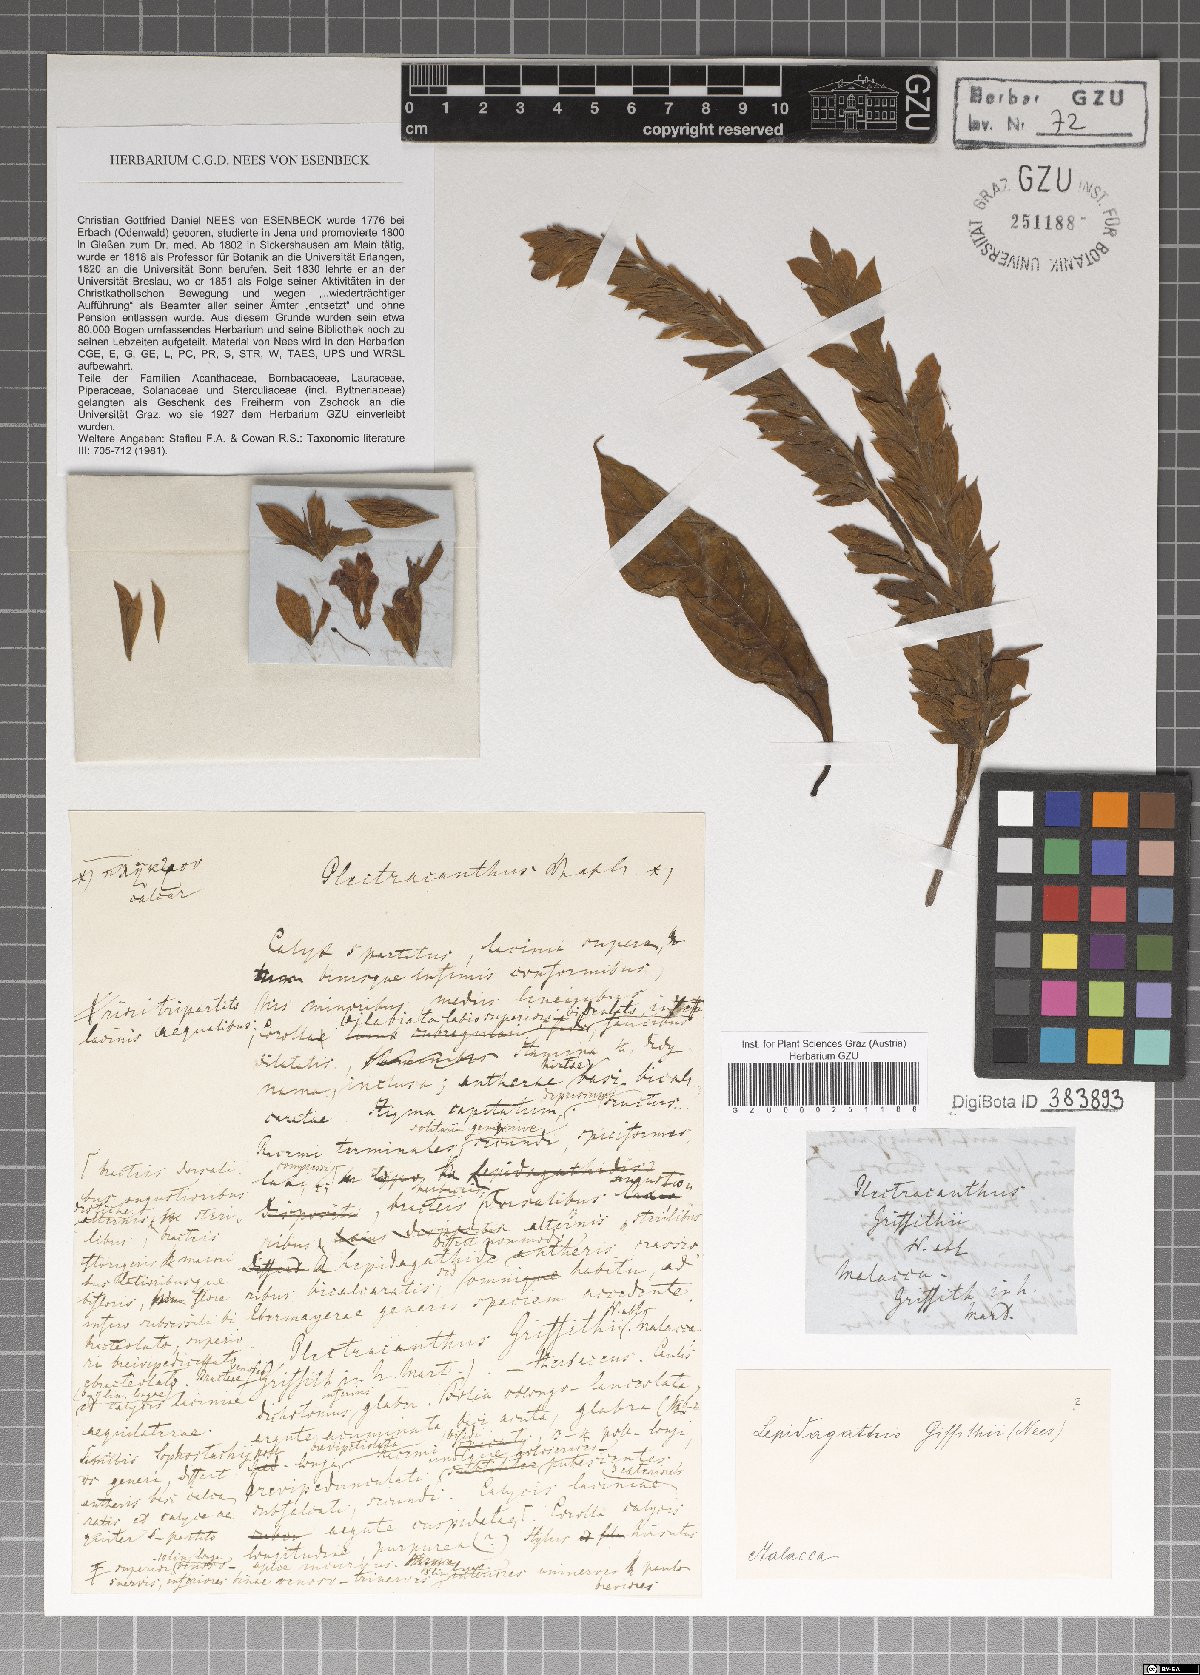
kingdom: Plantae
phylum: Tracheophyta
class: Magnoliopsida
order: Lamiales
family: Lamiaceae
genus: Plectranthus
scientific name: Plectranthus
